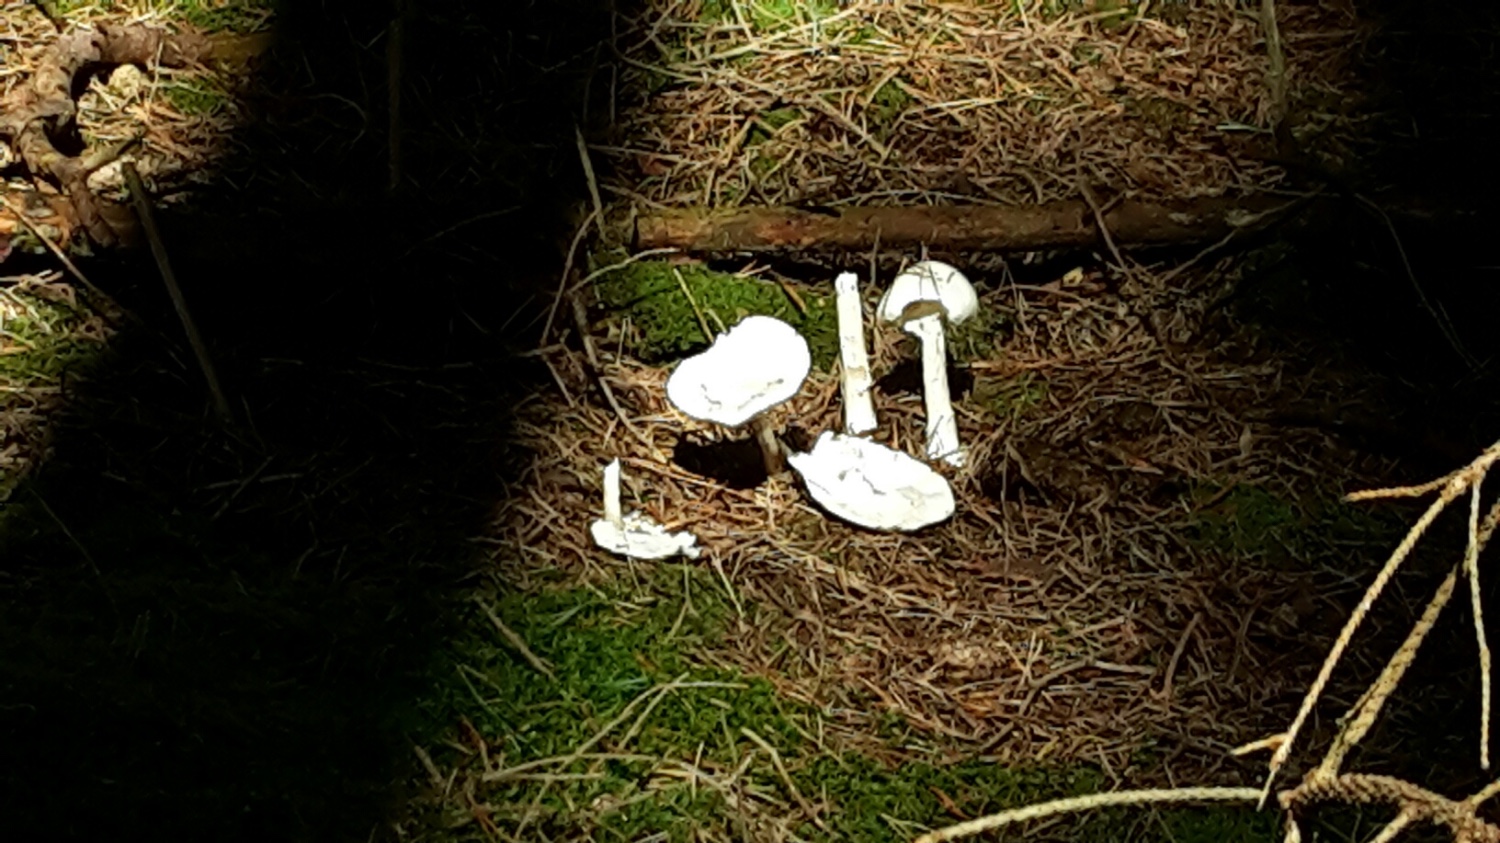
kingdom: Fungi
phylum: Basidiomycota
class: Agaricomycetes
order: Agaricales
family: Amanitaceae
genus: Amanita
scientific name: Amanita virosa
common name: snehvid fluesvamp
